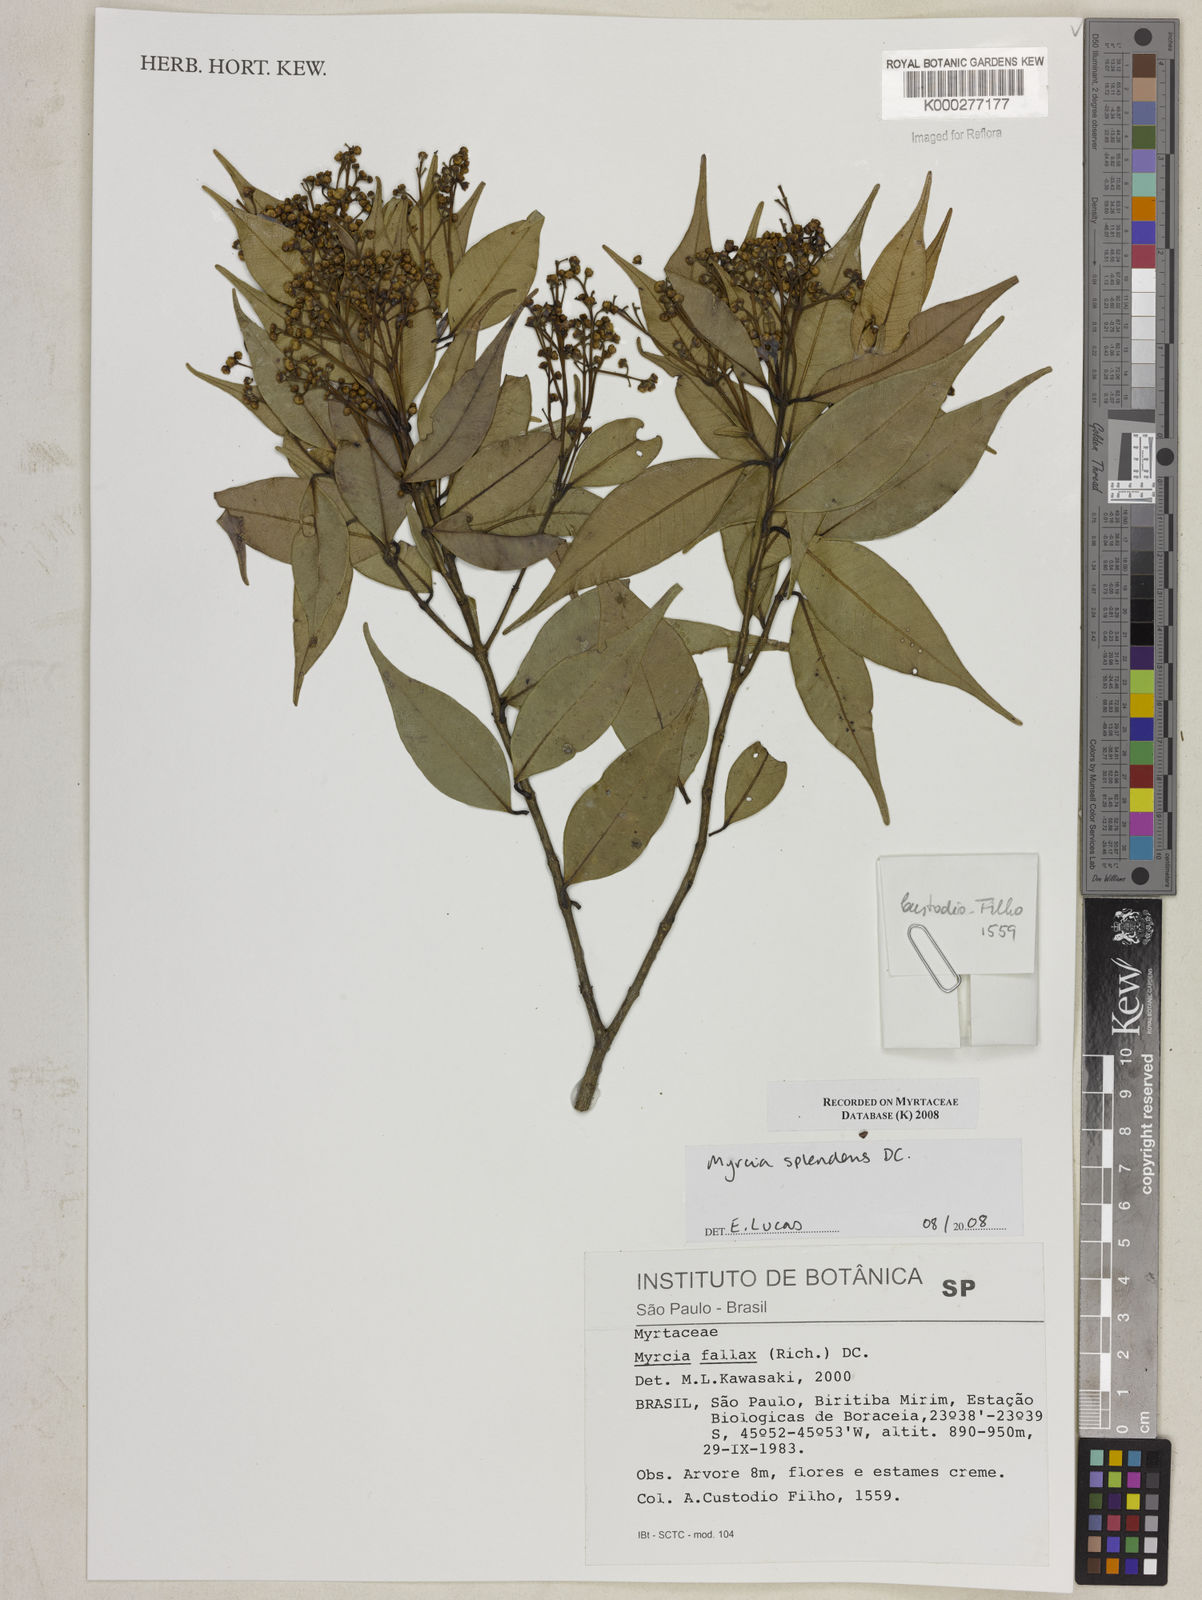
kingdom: Plantae
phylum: Tracheophyta
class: Magnoliopsida
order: Myrtales
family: Myrtaceae
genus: Myrcia
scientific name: Myrcia splendens
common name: Surinam cherry
